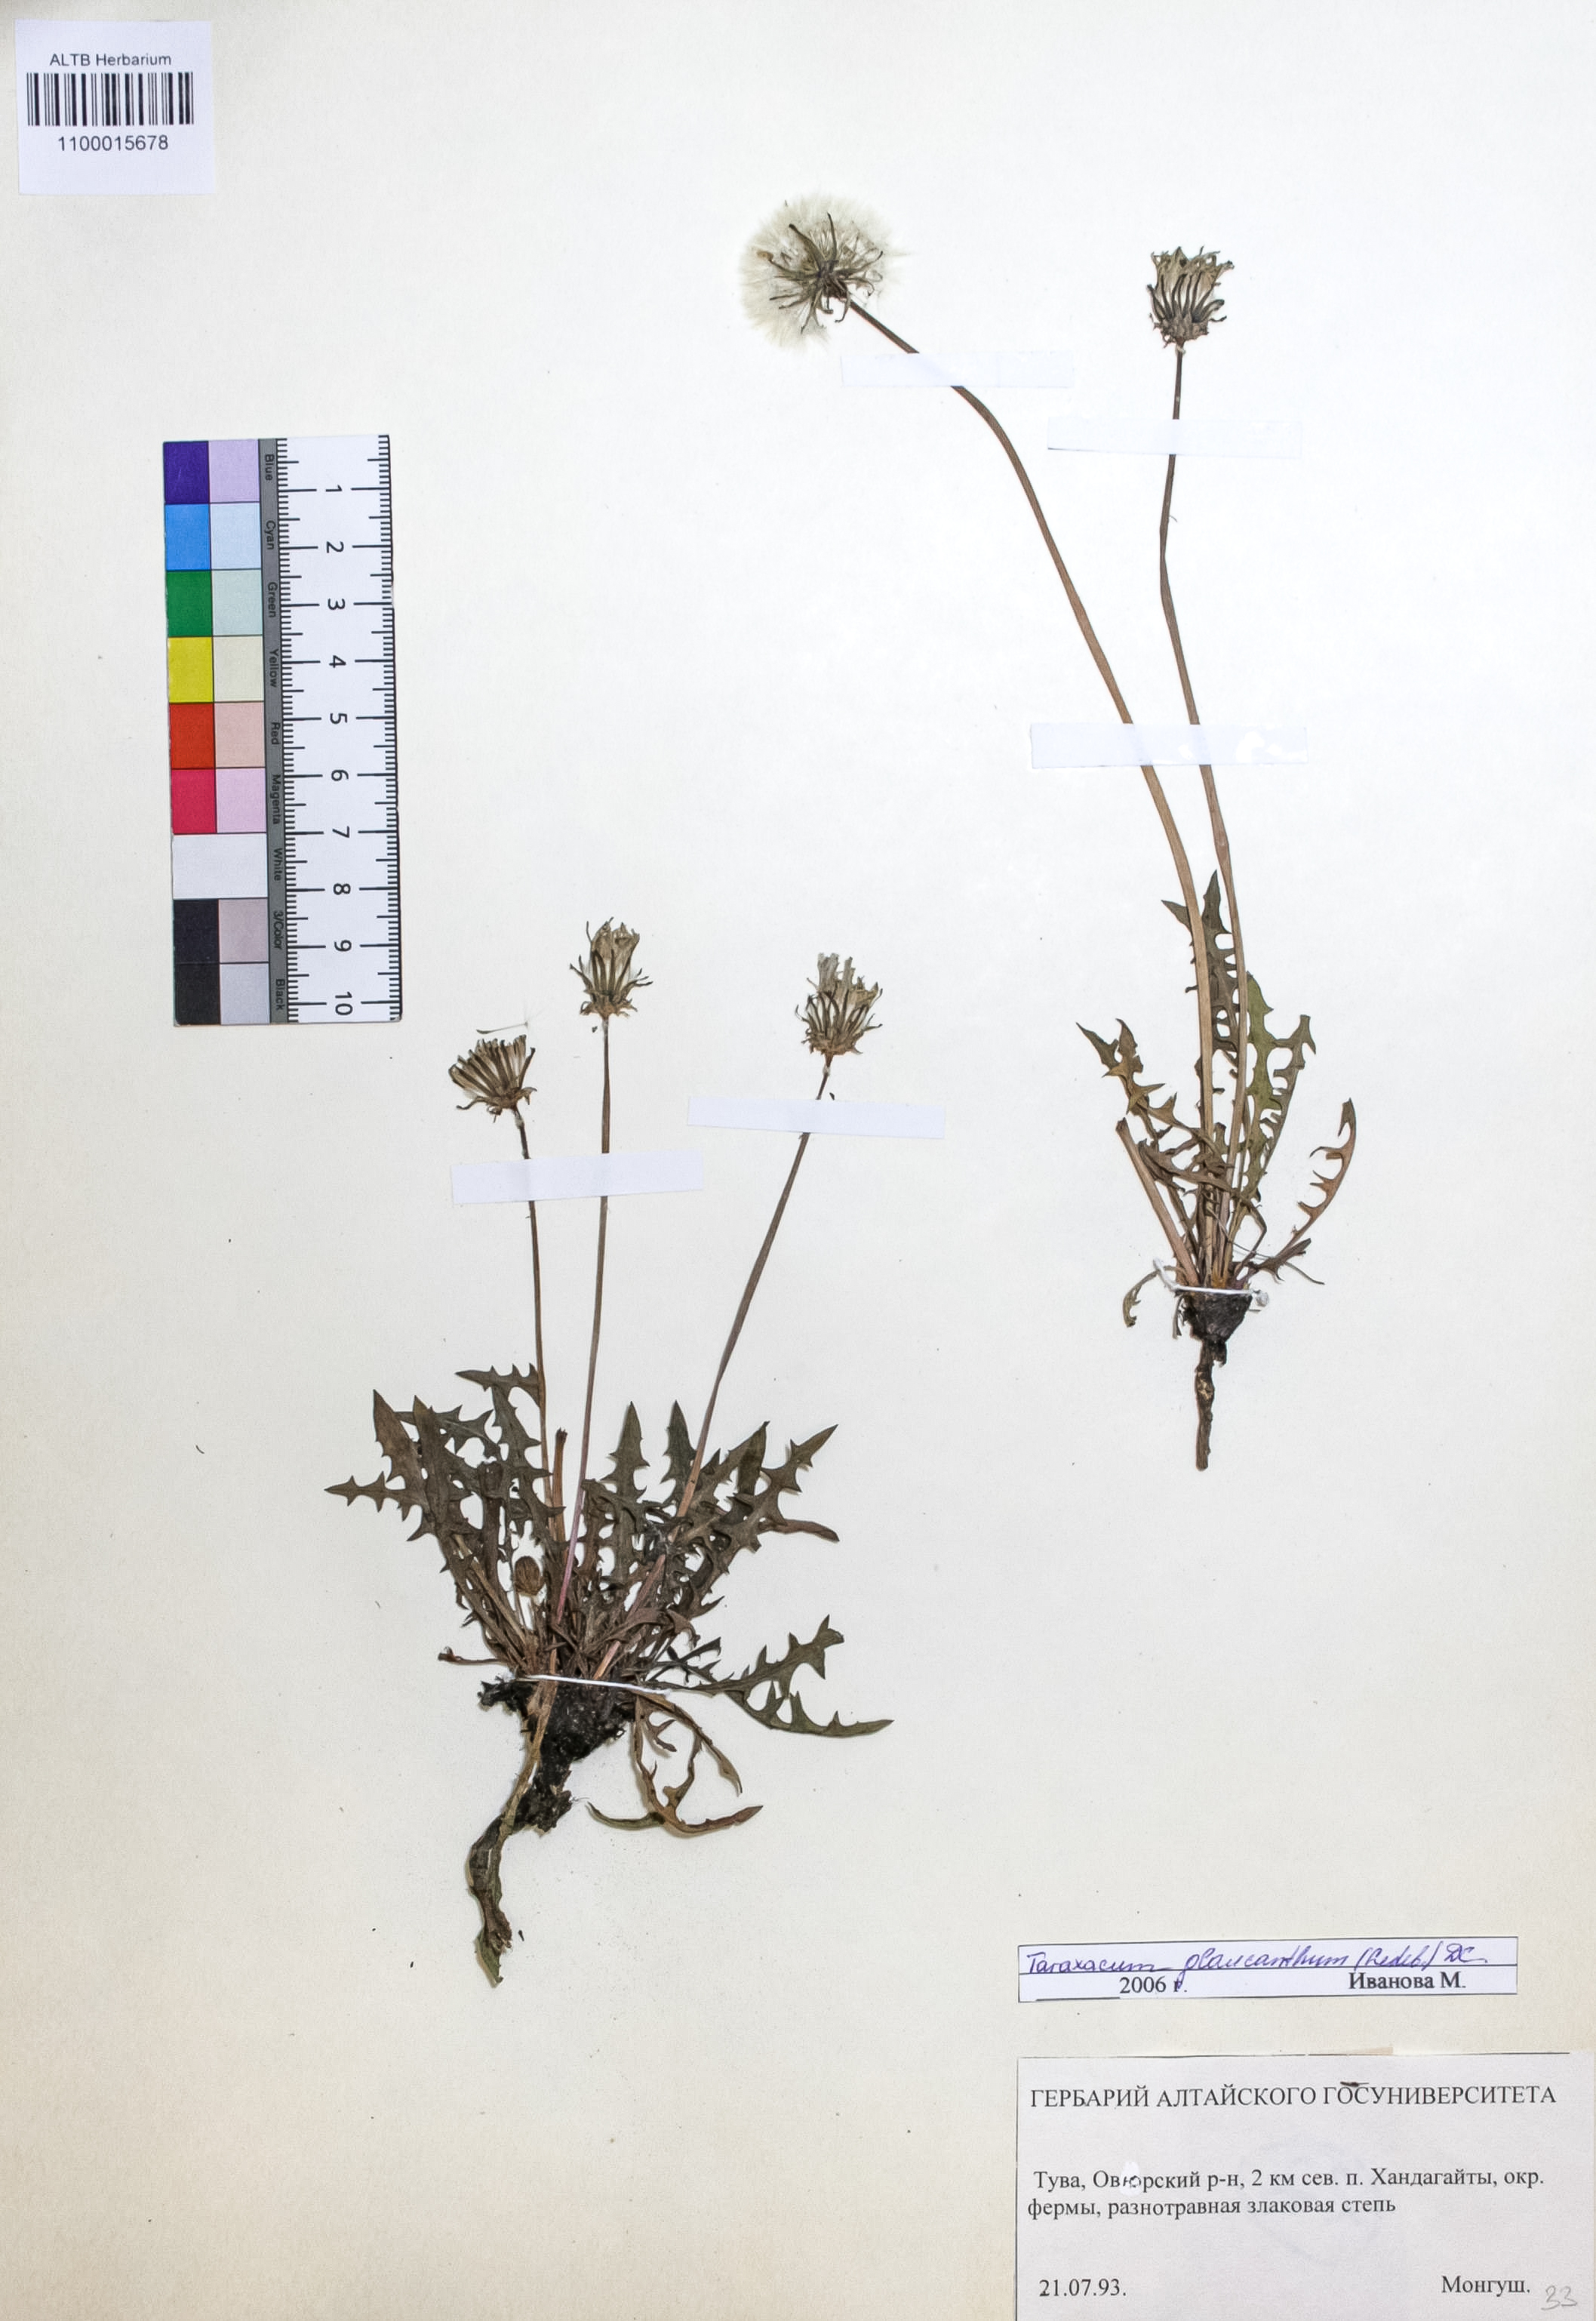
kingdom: Plantae
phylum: Tracheophyta
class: Magnoliopsida
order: Asterales
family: Asteraceae
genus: Taraxacum
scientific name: Taraxacum glaucanthum
